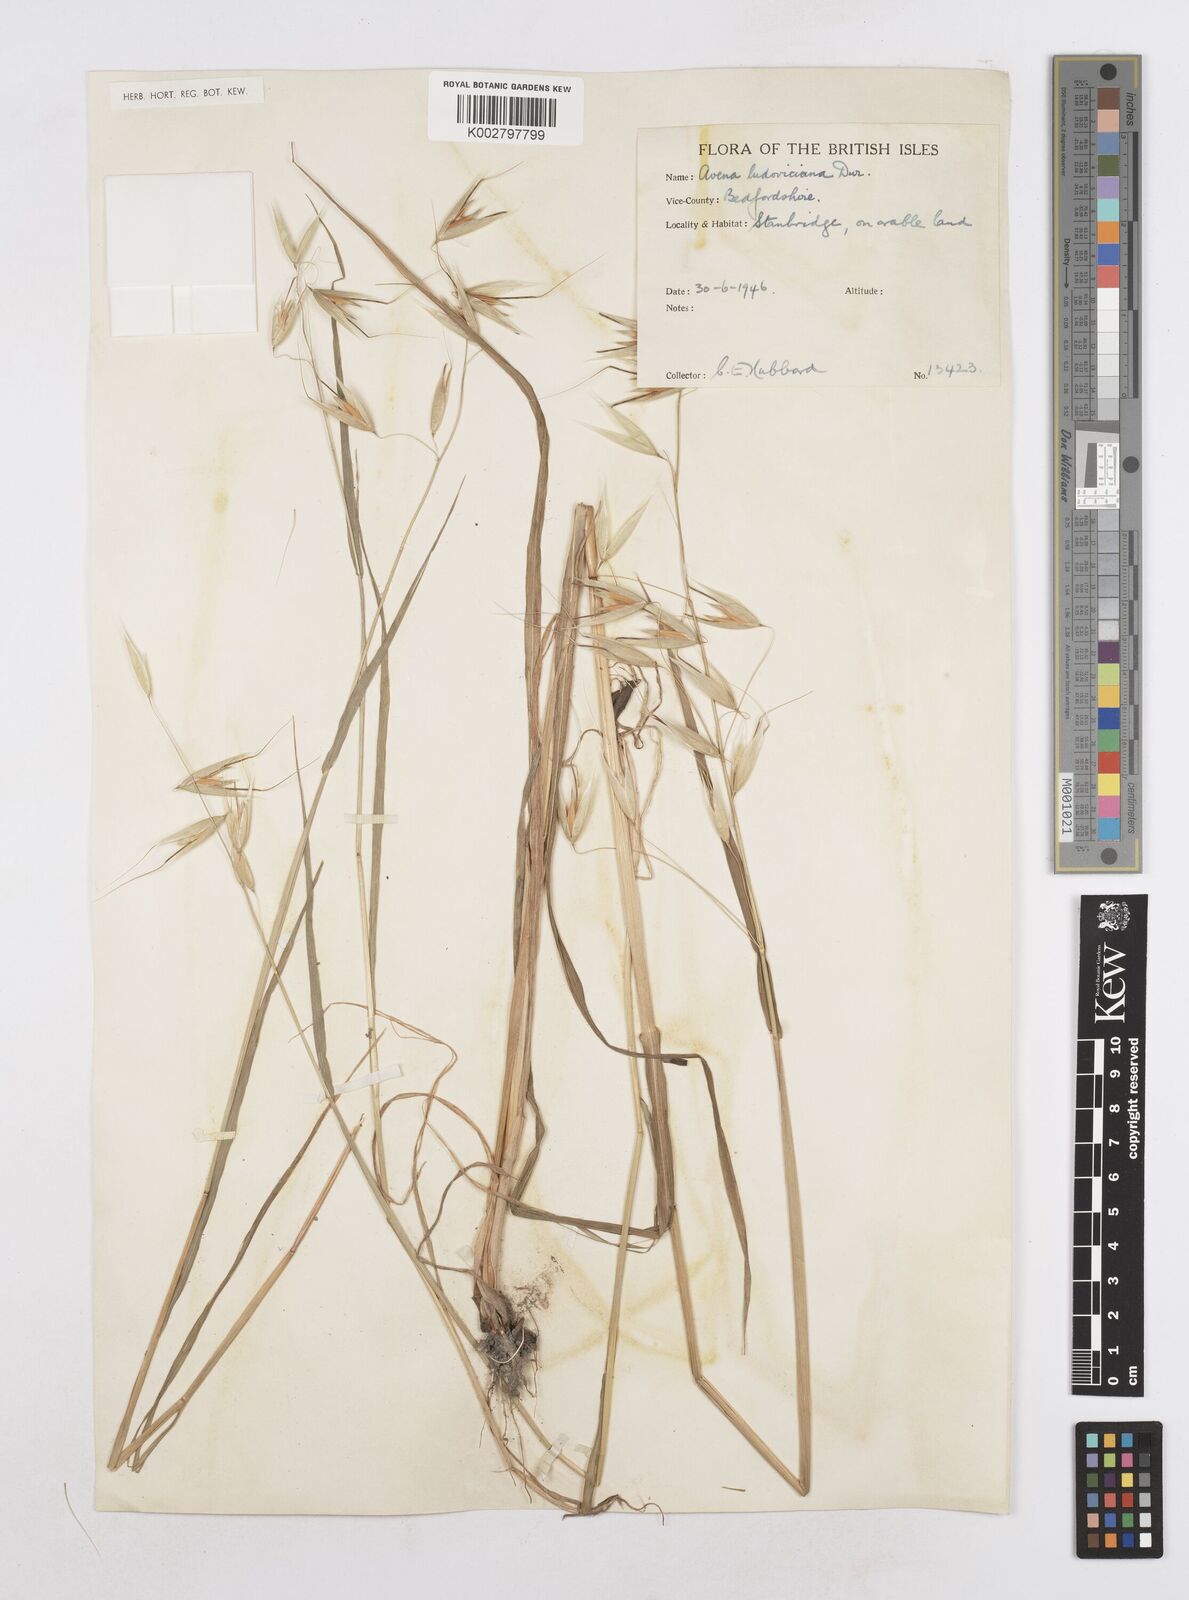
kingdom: Plantae
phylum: Tracheophyta
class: Liliopsida
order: Poales
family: Poaceae
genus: Avena
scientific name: Avena sterilis
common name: Animated oat
